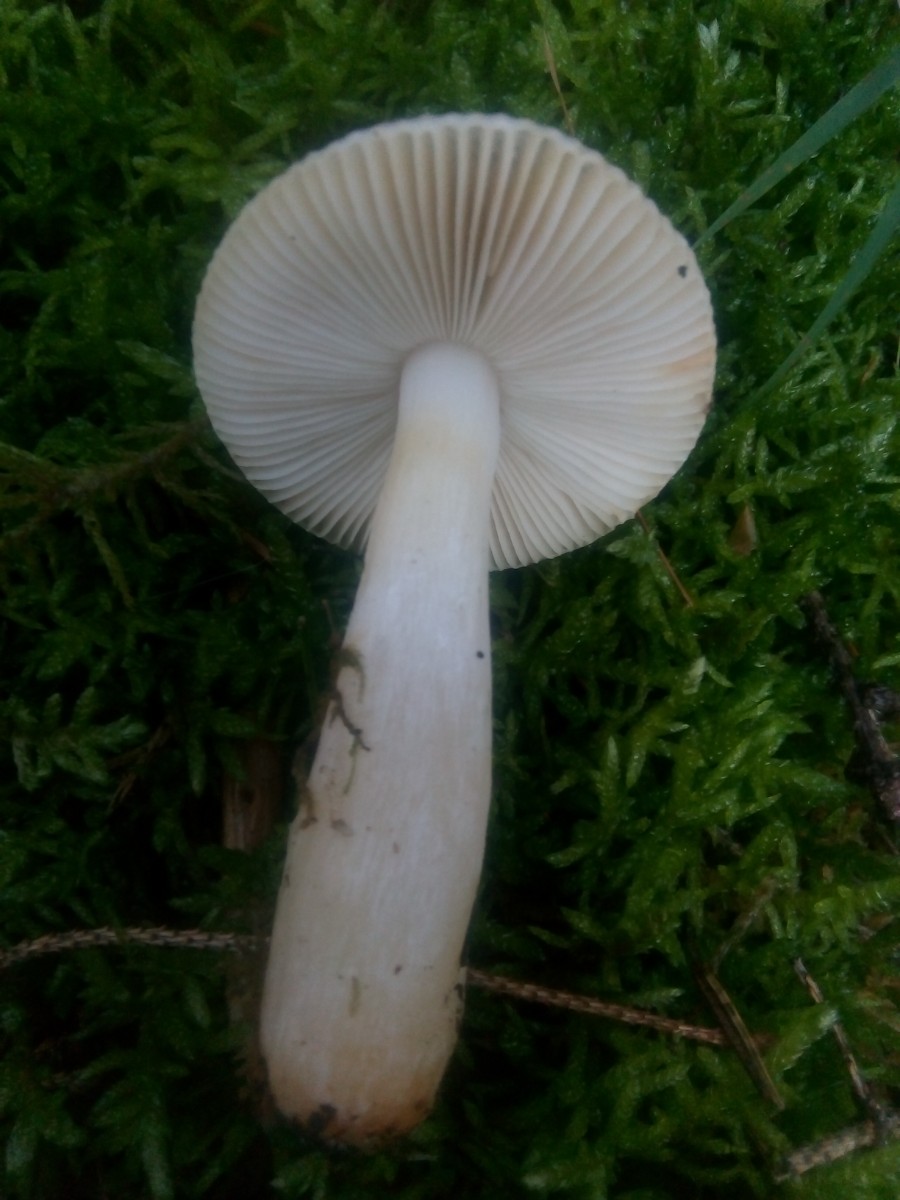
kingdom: Fungi
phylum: Basidiomycota
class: Agaricomycetes
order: Russulales
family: Russulaceae
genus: Russula
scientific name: Russula puellaris
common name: gulstokket skørhat
